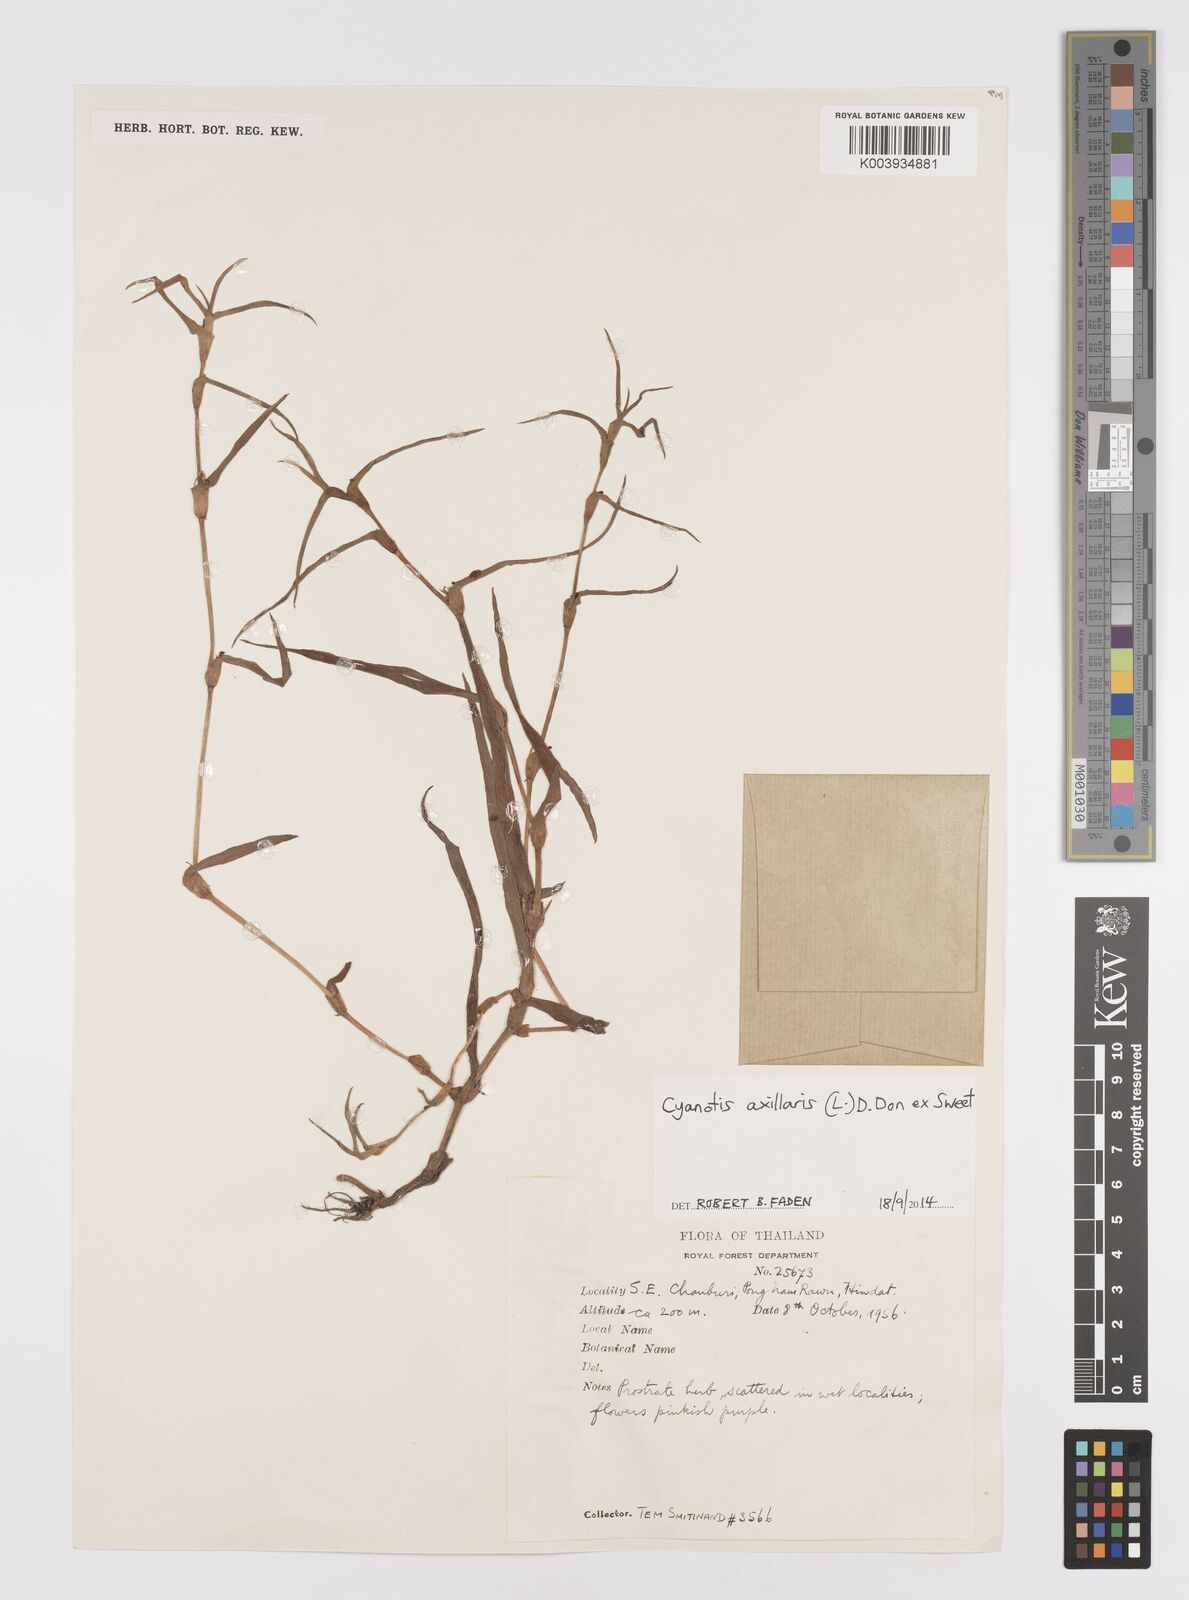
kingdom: Plantae
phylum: Tracheophyta
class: Liliopsida
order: Commelinales
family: Commelinaceae
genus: Cyanotis
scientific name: Cyanotis axillaris
